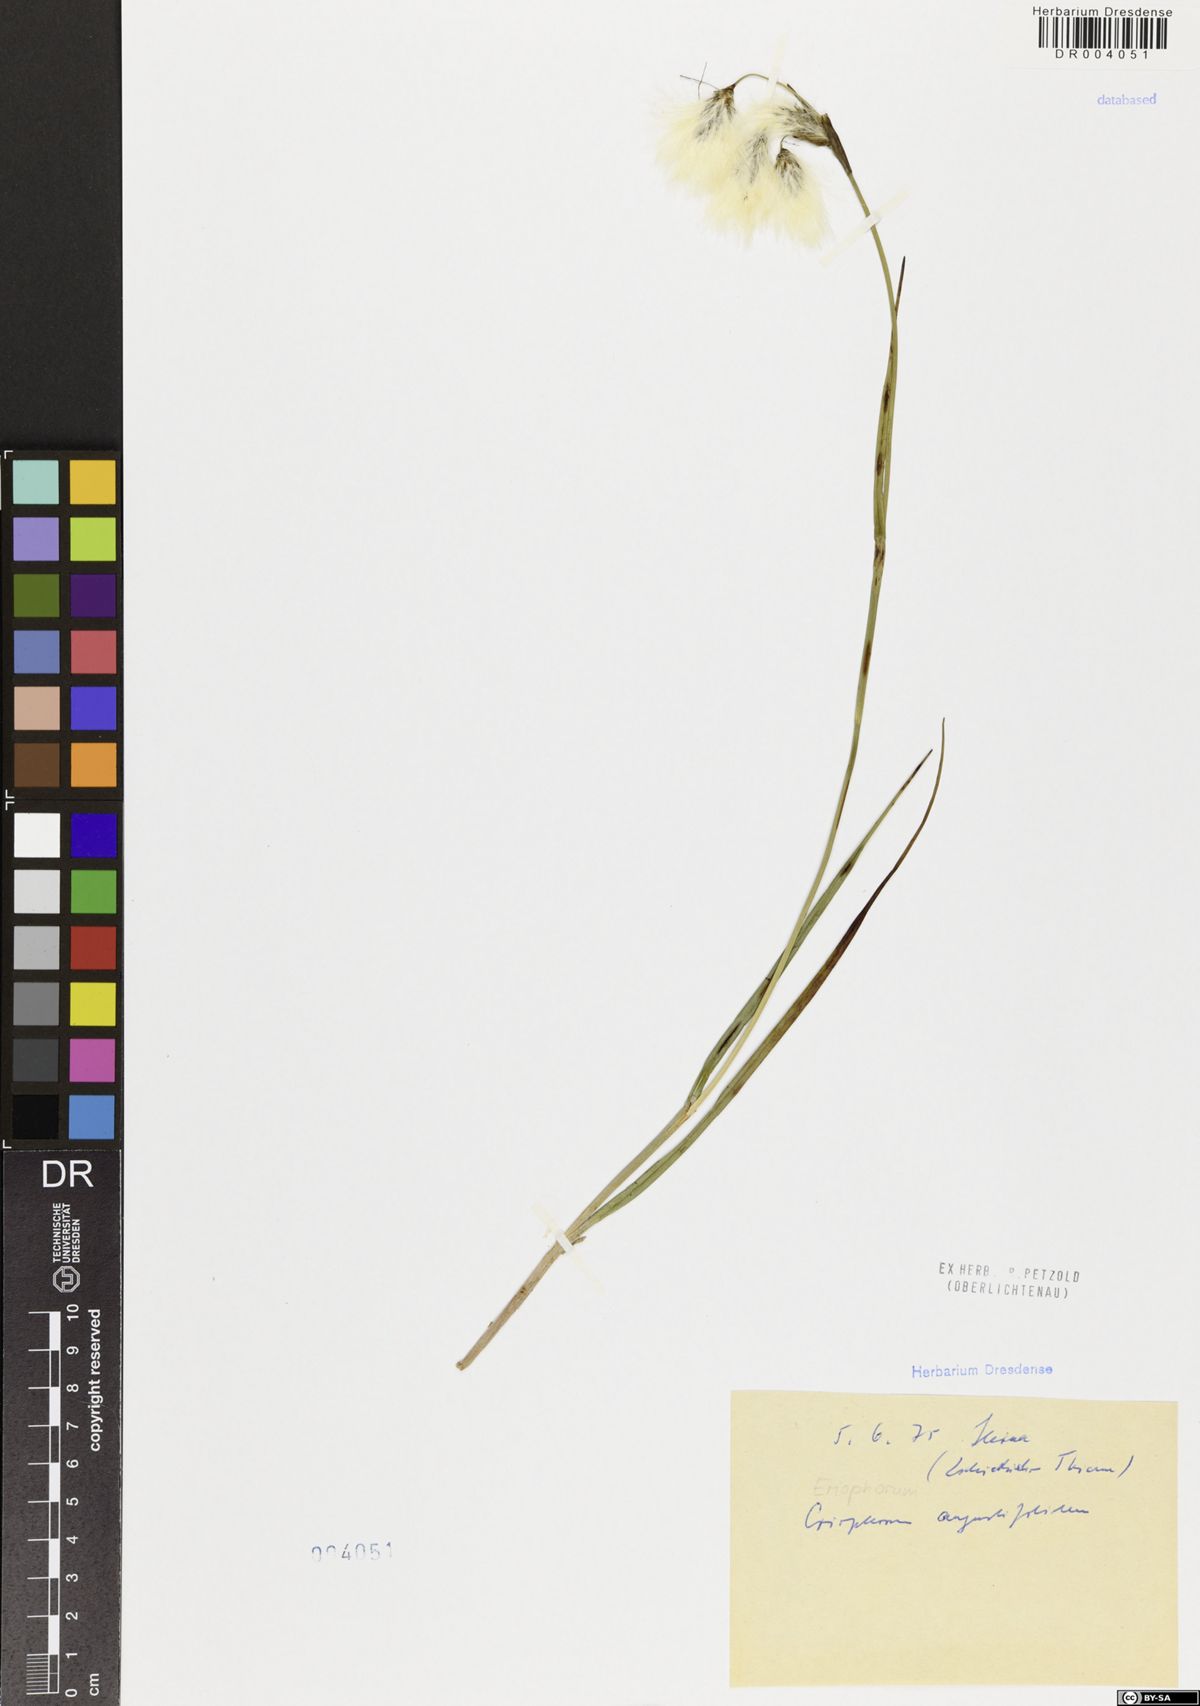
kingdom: Plantae
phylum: Tracheophyta
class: Liliopsida
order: Poales
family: Cyperaceae
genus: Eriophorum
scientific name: Eriophorum angustifolium
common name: Common cottongrass
